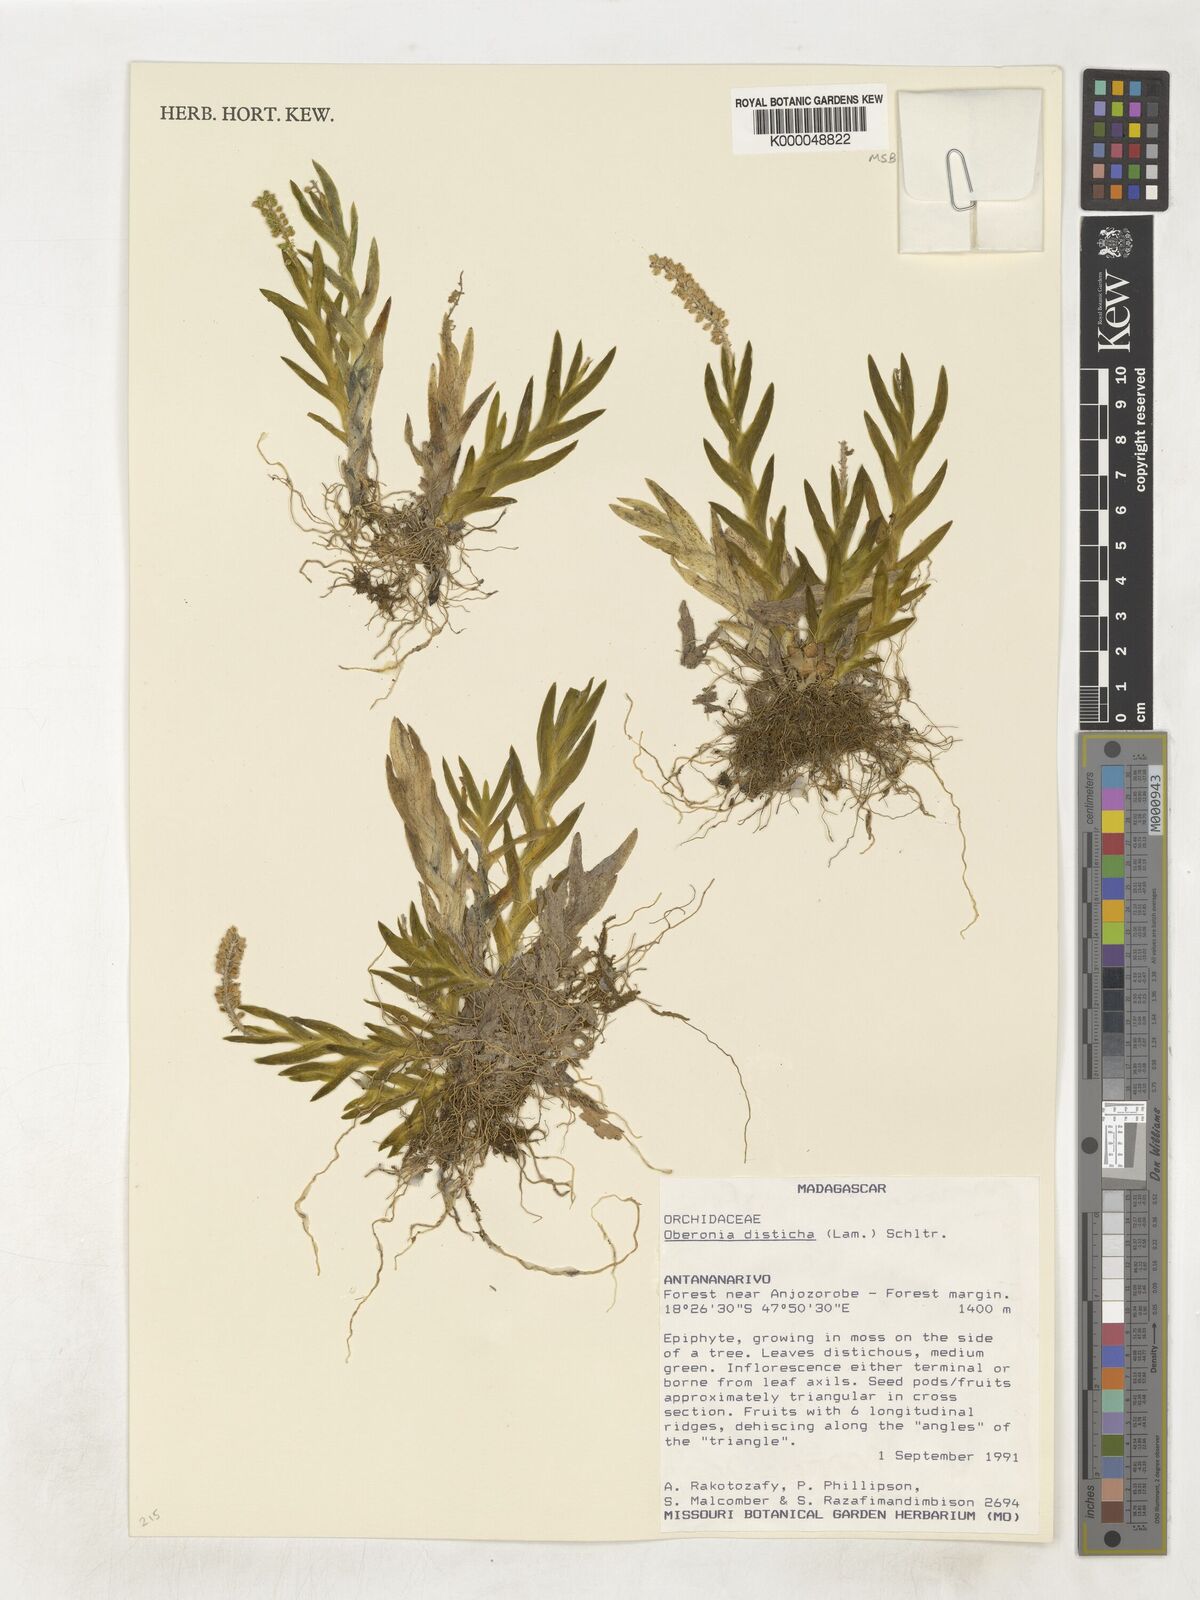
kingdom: Plantae
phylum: Tracheophyta
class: Liliopsida
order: Asparagales
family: Orchidaceae
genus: Oberonia
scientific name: Oberonia disticha
